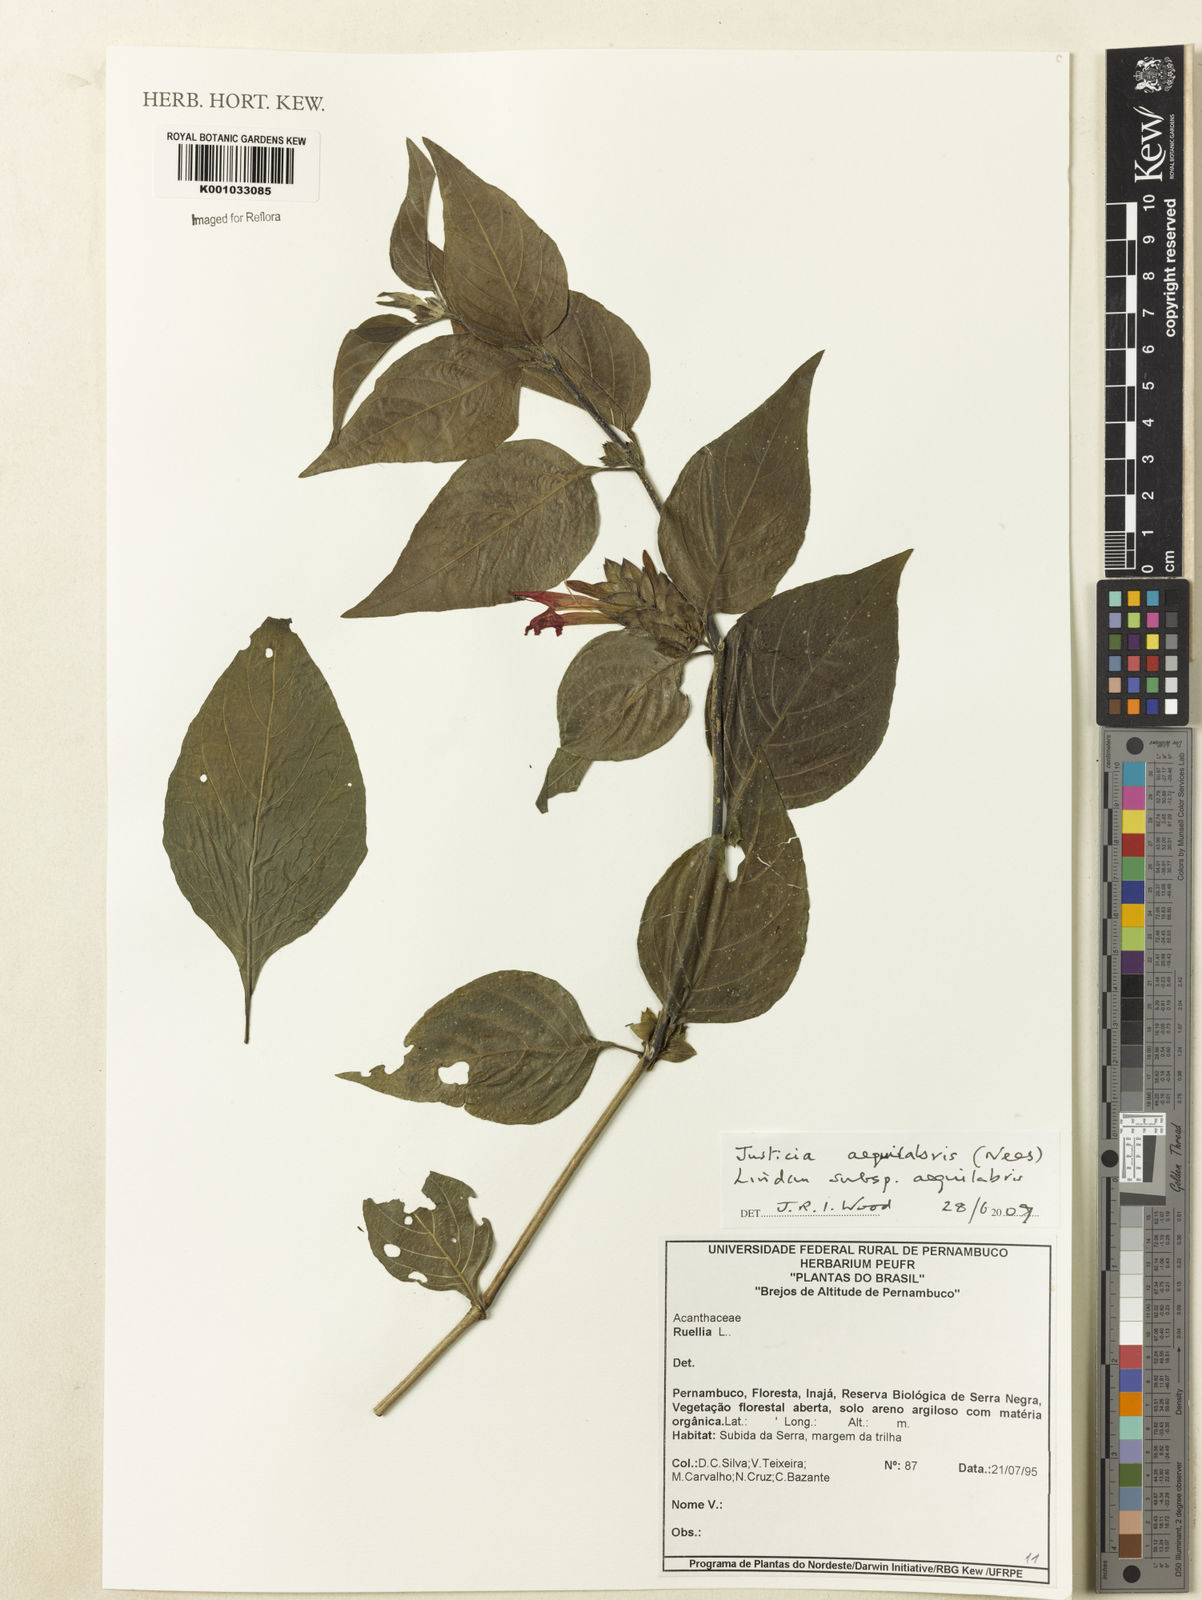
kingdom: Plantae
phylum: Tracheophyta
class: Magnoliopsida
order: Lamiales
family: Acanthaceae
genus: Justicia
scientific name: Justicia aequalis
